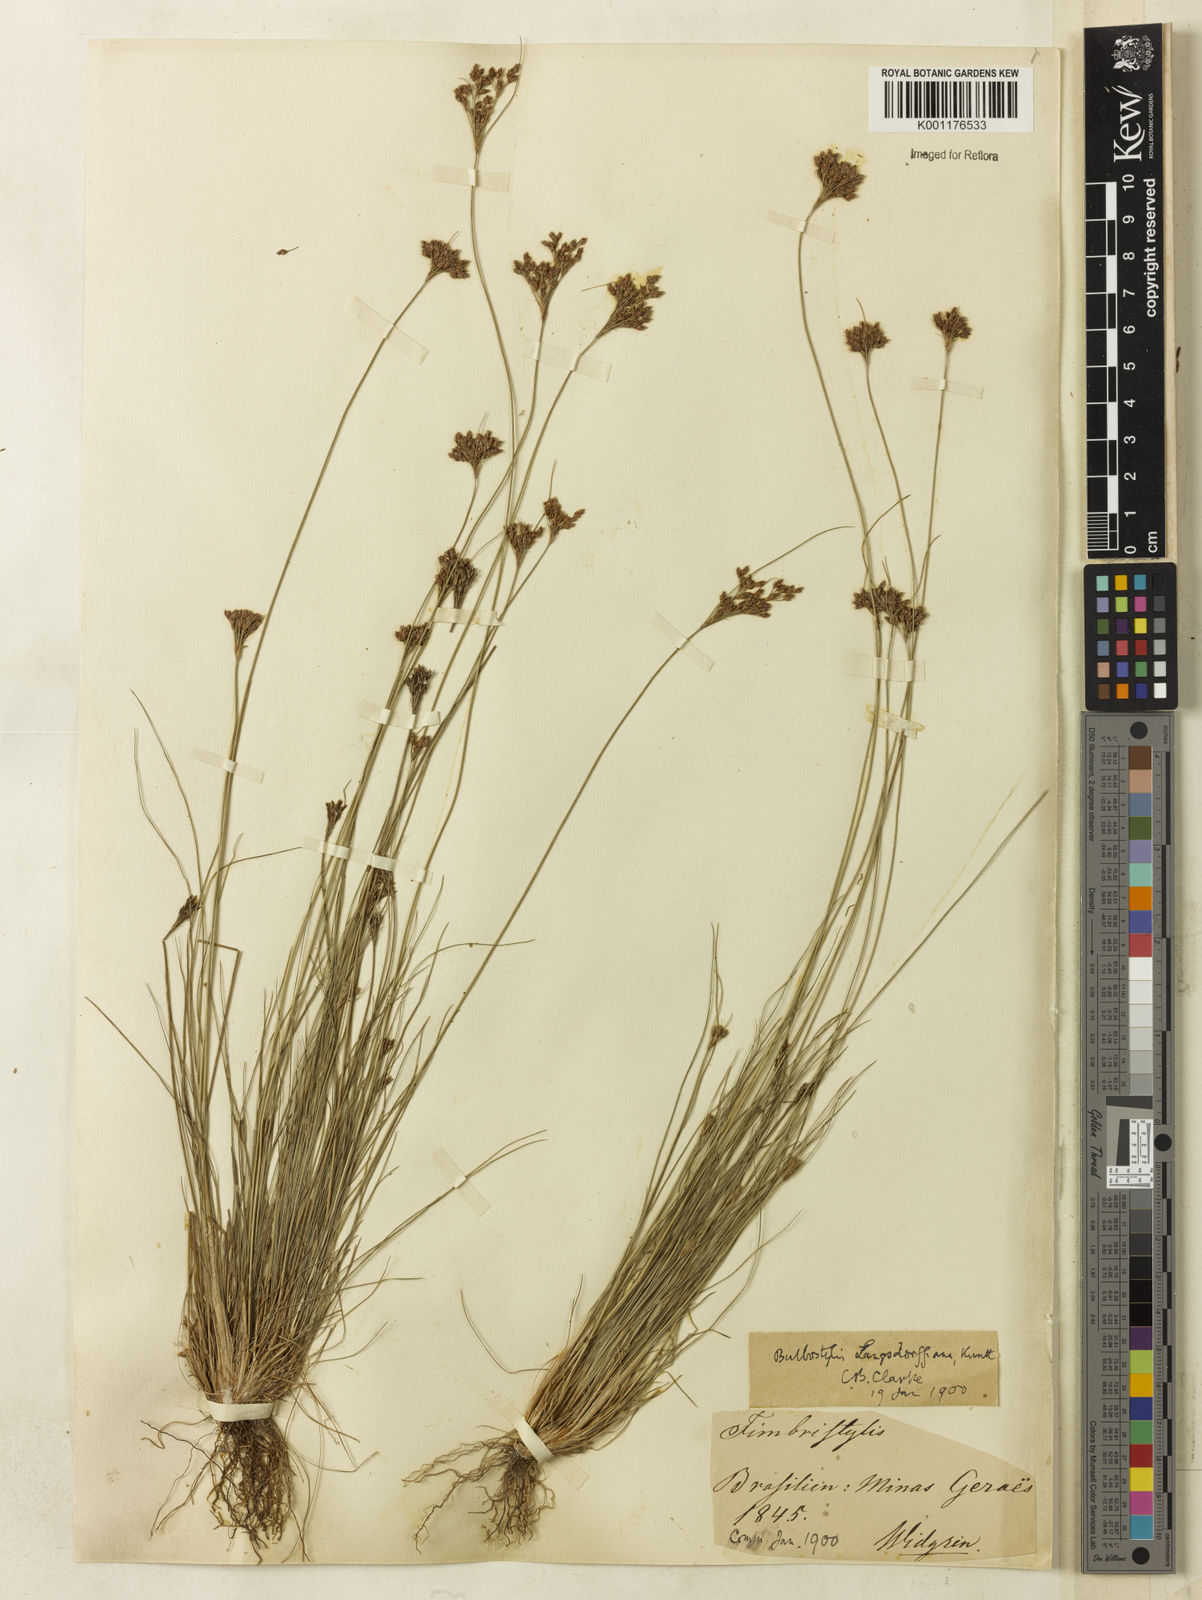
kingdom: Plantae
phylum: Tracheophyta
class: Liliopsida
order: Poales
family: Cyperaceae
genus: Bulbostylis
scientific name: Bulbostylis juncoides
